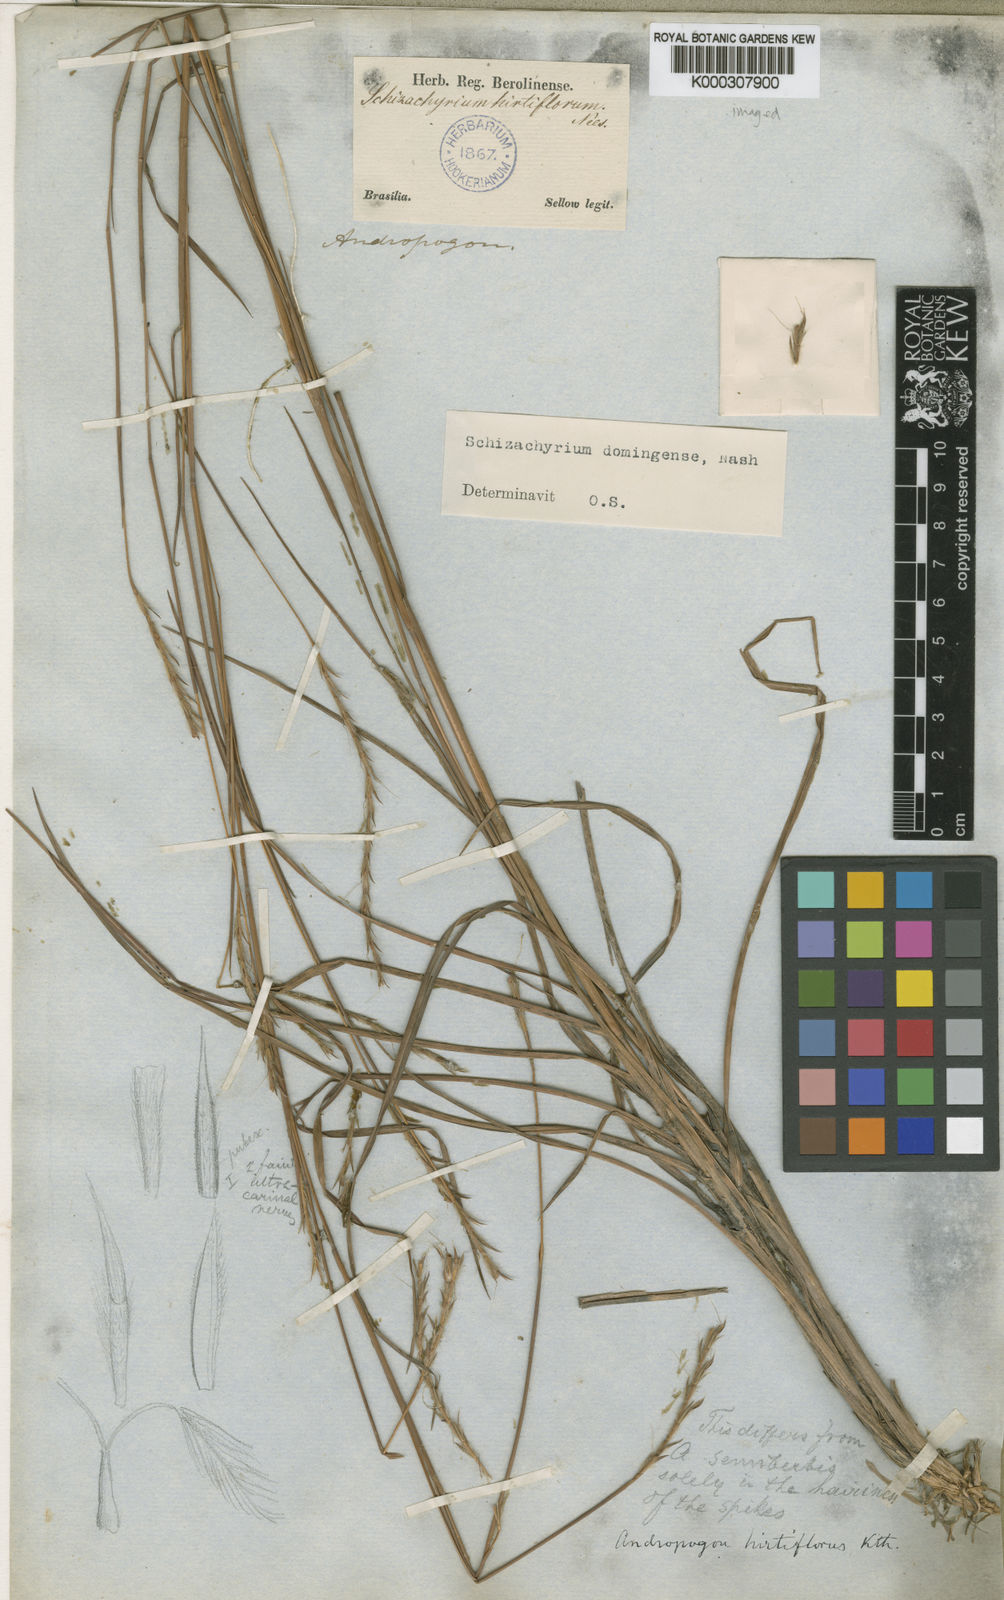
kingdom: Plantae
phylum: Tracheophyta
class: Liliopsida
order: Poales
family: Poaceae
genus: Schizachyrium
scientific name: Schizachyrium sanguineum
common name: Crimson bluestem
